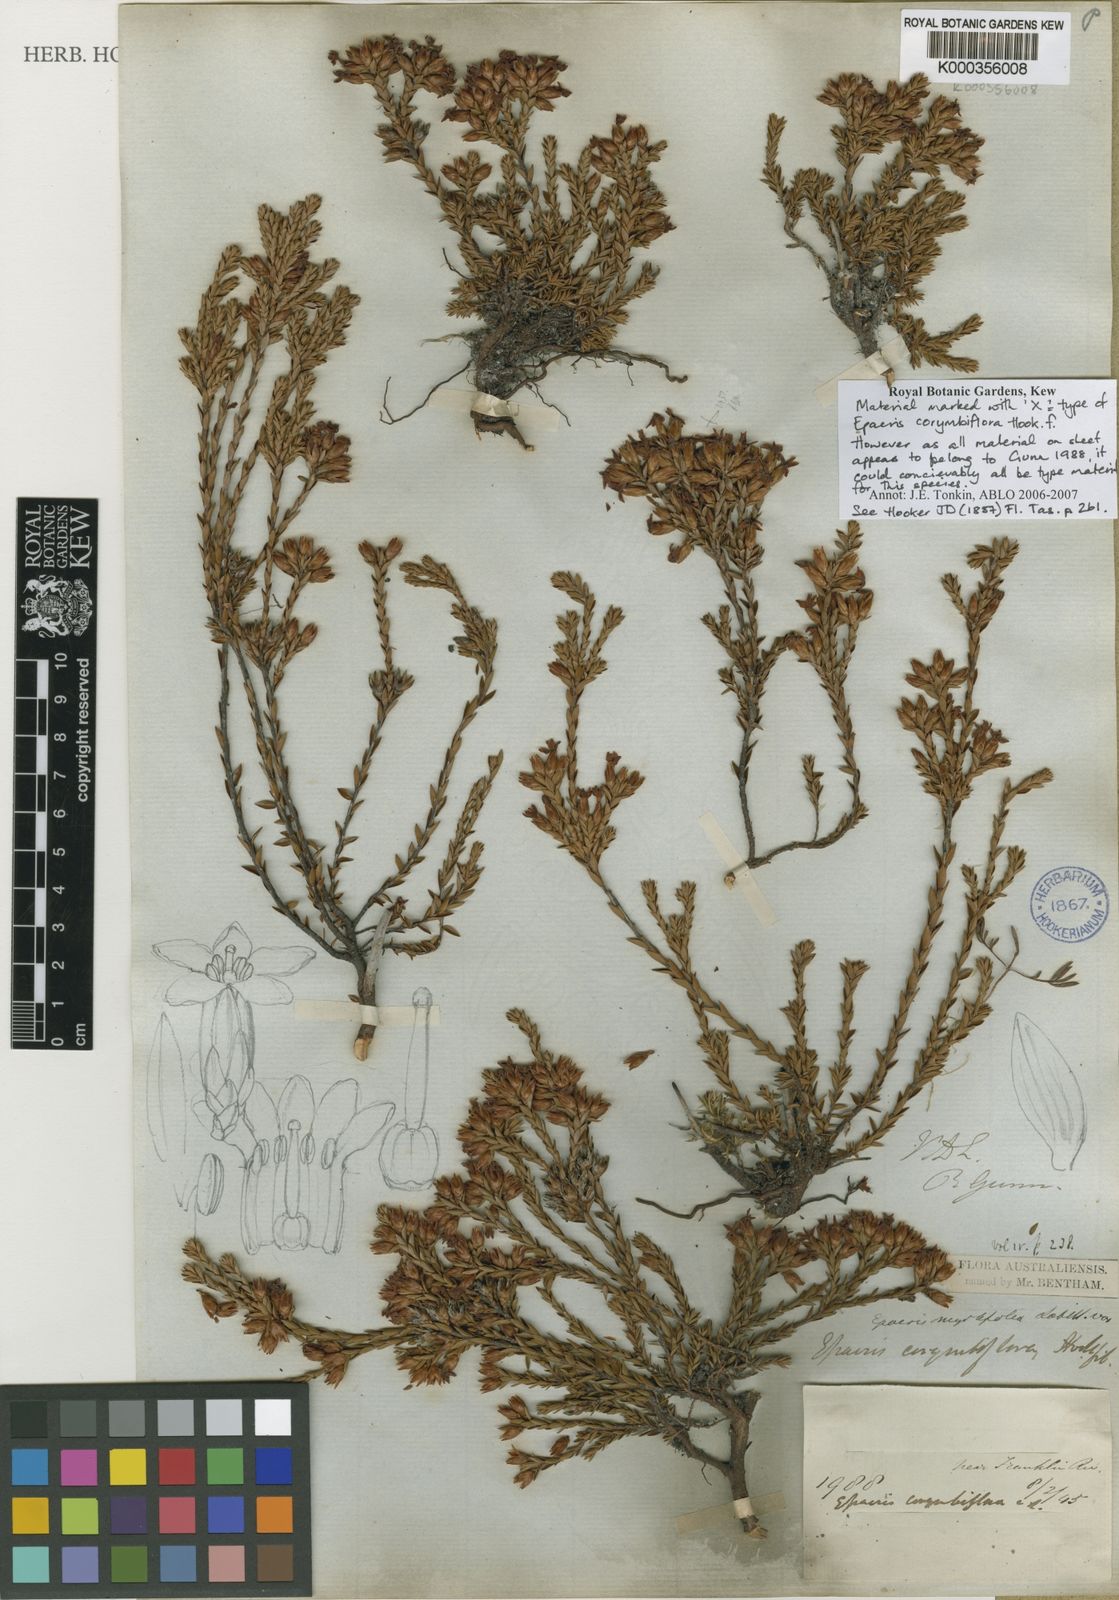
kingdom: Plantae
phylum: Tracheophyta
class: Magnoliopsida
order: Ericales
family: Ericaceae
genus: Epacris
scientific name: Epacris corymbiflora
